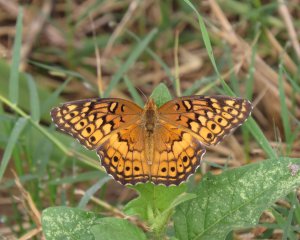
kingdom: Animalia
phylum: Arthropoda
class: Insecta
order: Lepidoptera
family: Nymphalidae
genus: Euptoieta
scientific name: Euptoieta claudia
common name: Variegated Fritillary
